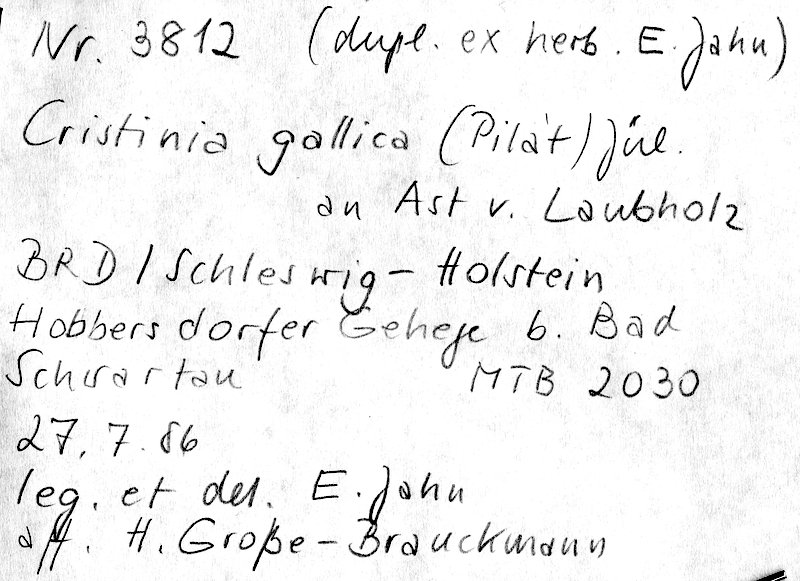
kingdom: Fungi
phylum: Basidiomycota
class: Agaricomycetes
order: Agaricales
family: Stephanosporaceae
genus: Cristinia
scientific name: Cristinia eichleri
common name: Dentists' bane
